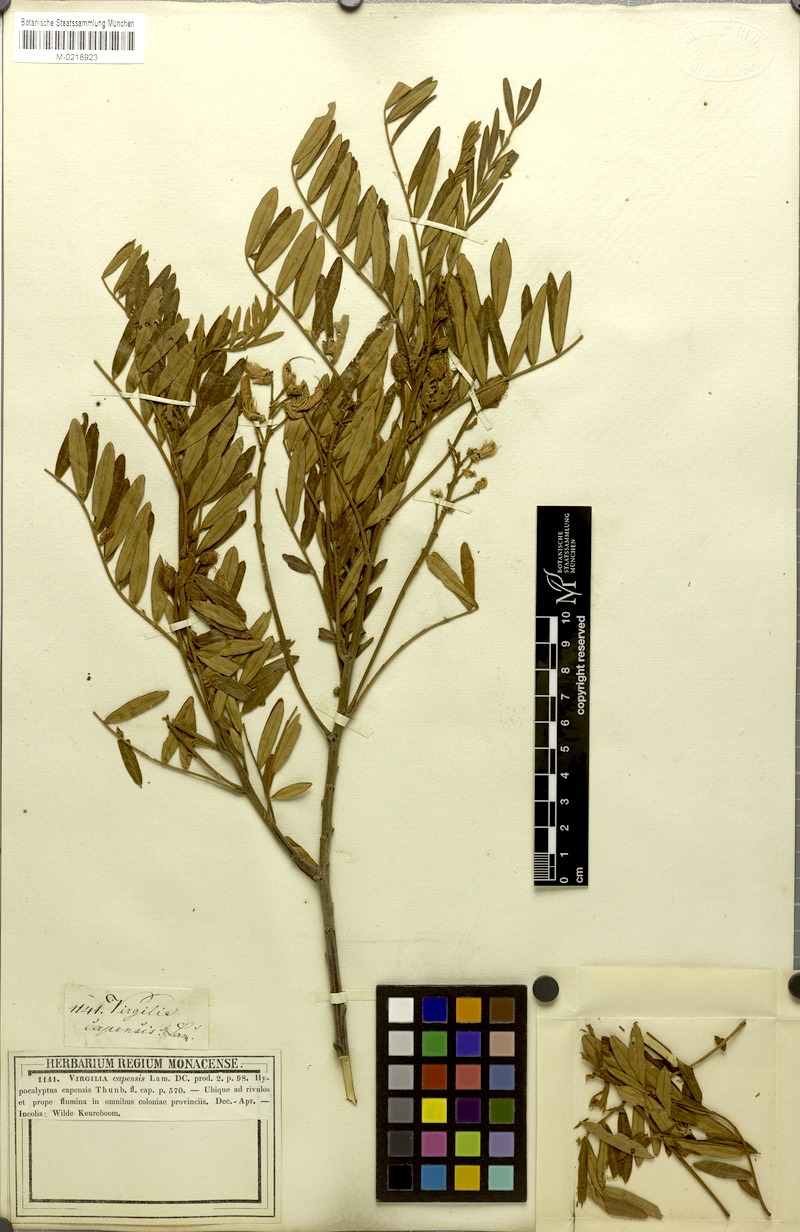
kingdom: Plantae
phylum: Tracheophyta
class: Magnoliopsida
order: Fabales
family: Fabaceae
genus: Virgilia
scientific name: Virgilia oroboides
